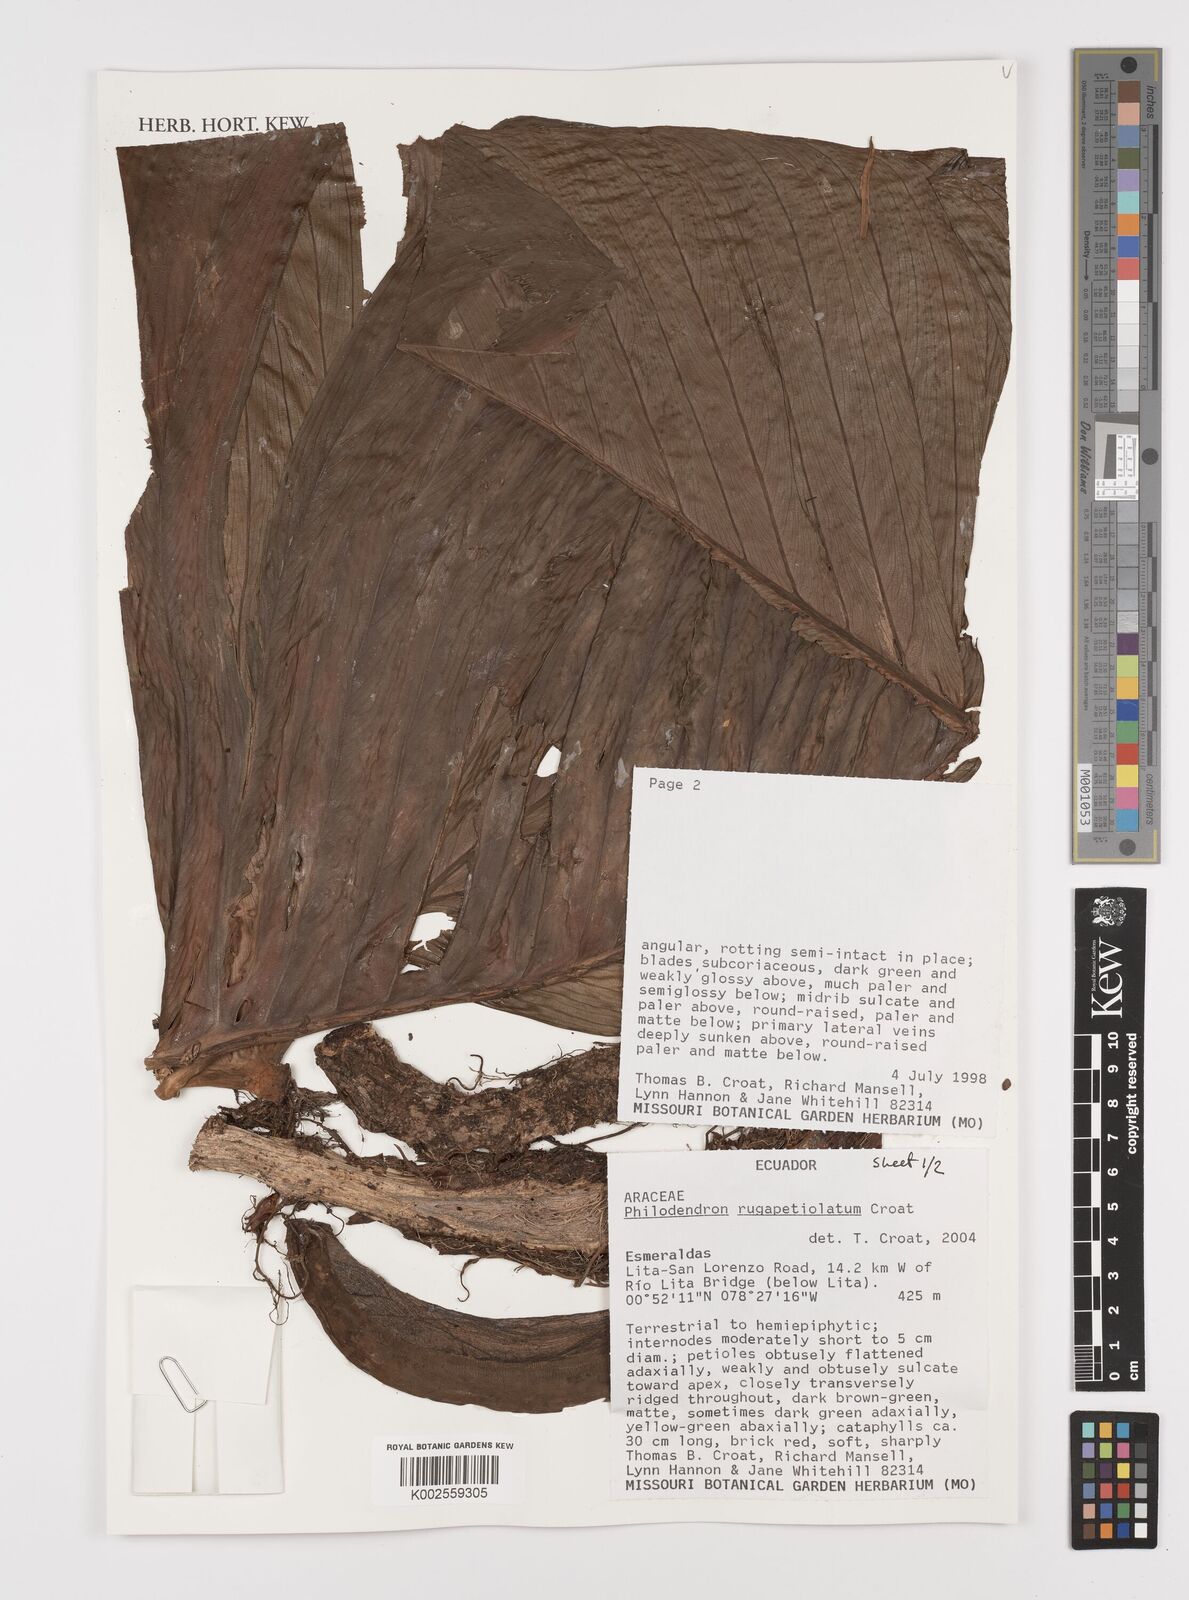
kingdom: Plantae
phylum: Tracheophyta
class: Liliopsida
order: Alismatales
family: Araceae
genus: Philodendron
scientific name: Philodendron rugapetiolatum
